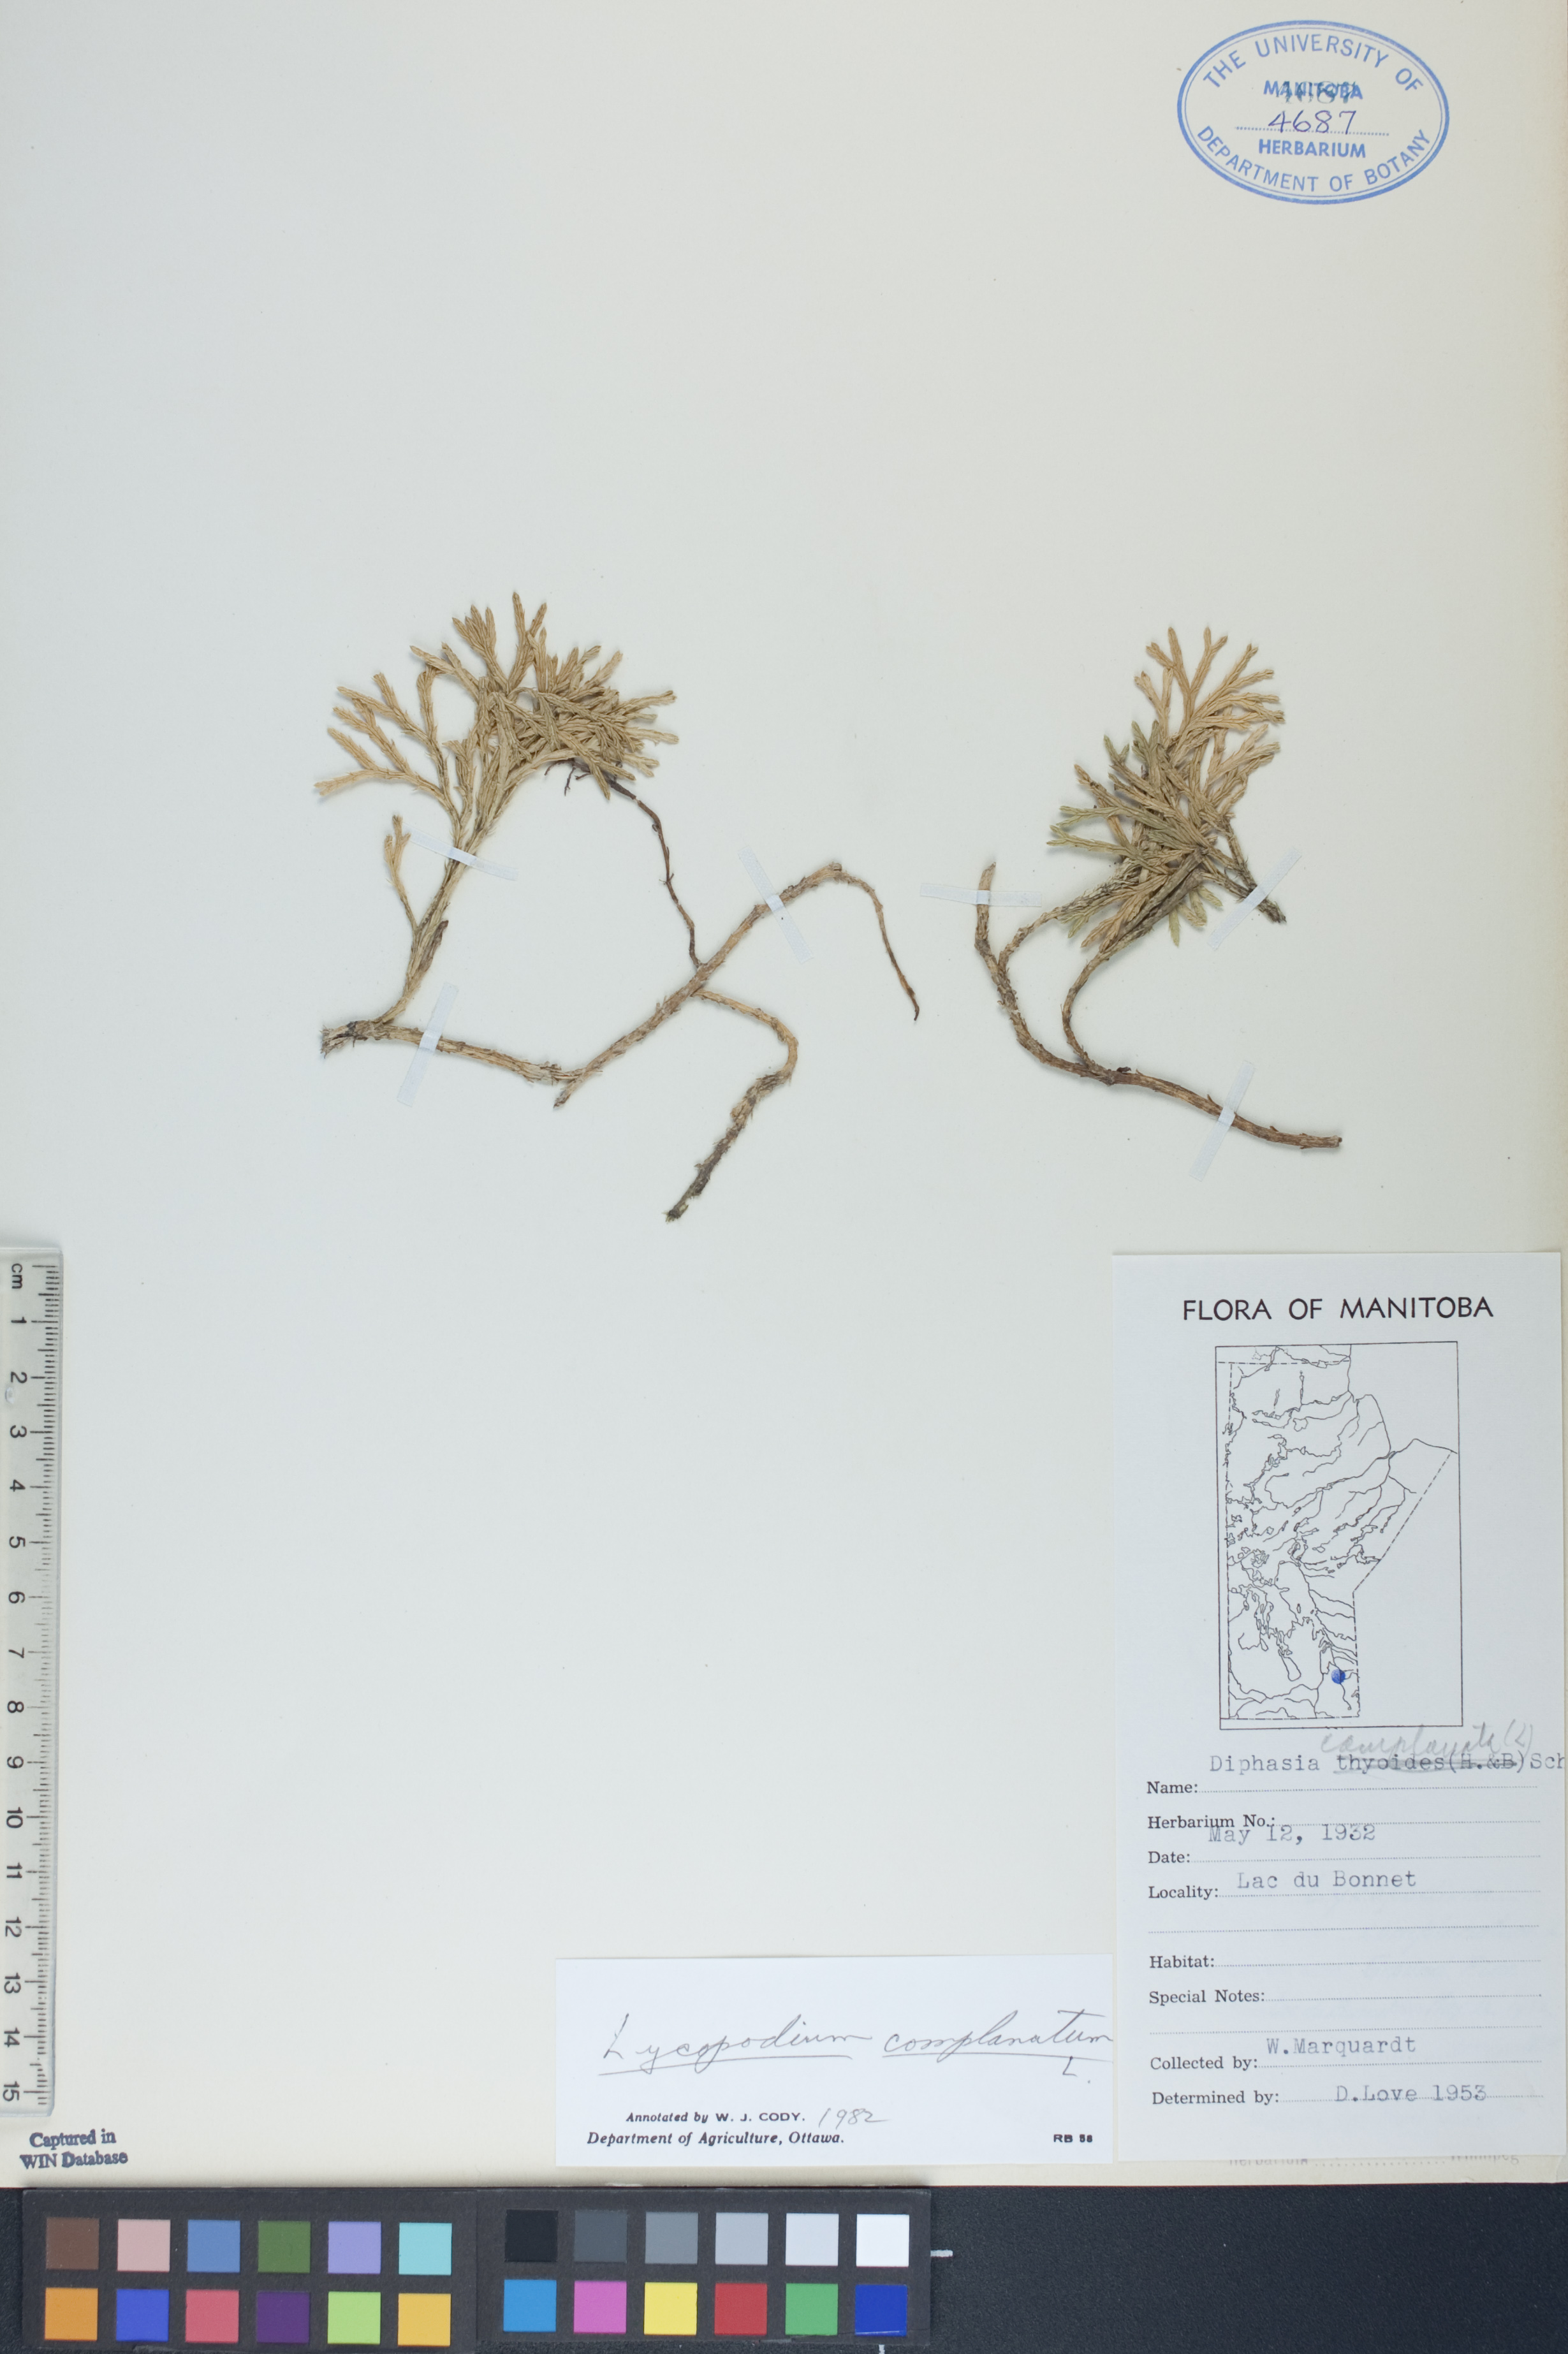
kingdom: Plantae
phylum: Tracheophyta
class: Lycopodiopsida
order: Lycopodiales
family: Lycopodiaceae
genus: Diphasiastrum
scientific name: Diphasiastrum
